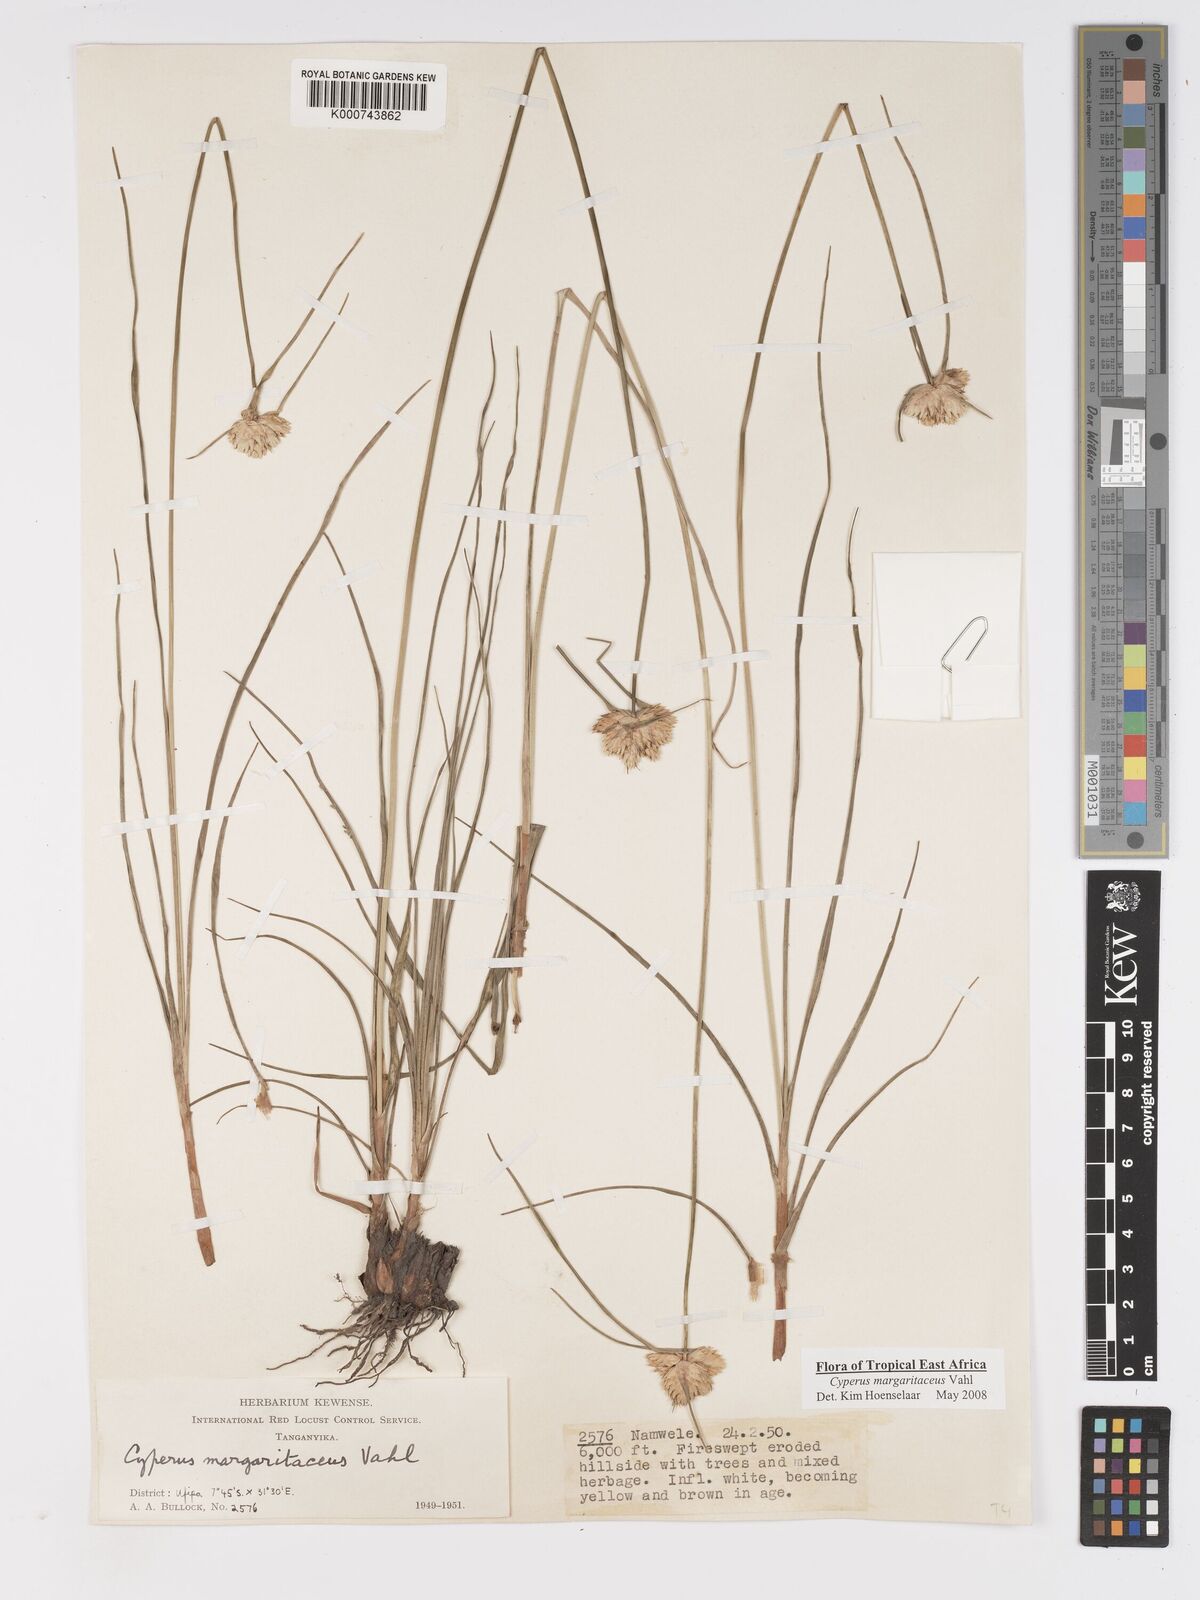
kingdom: Plantae
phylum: Tracheophyta
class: Liliopsida
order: Poales
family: Cyperaceae
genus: Cyperus
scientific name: Cyperus margaritaceus
